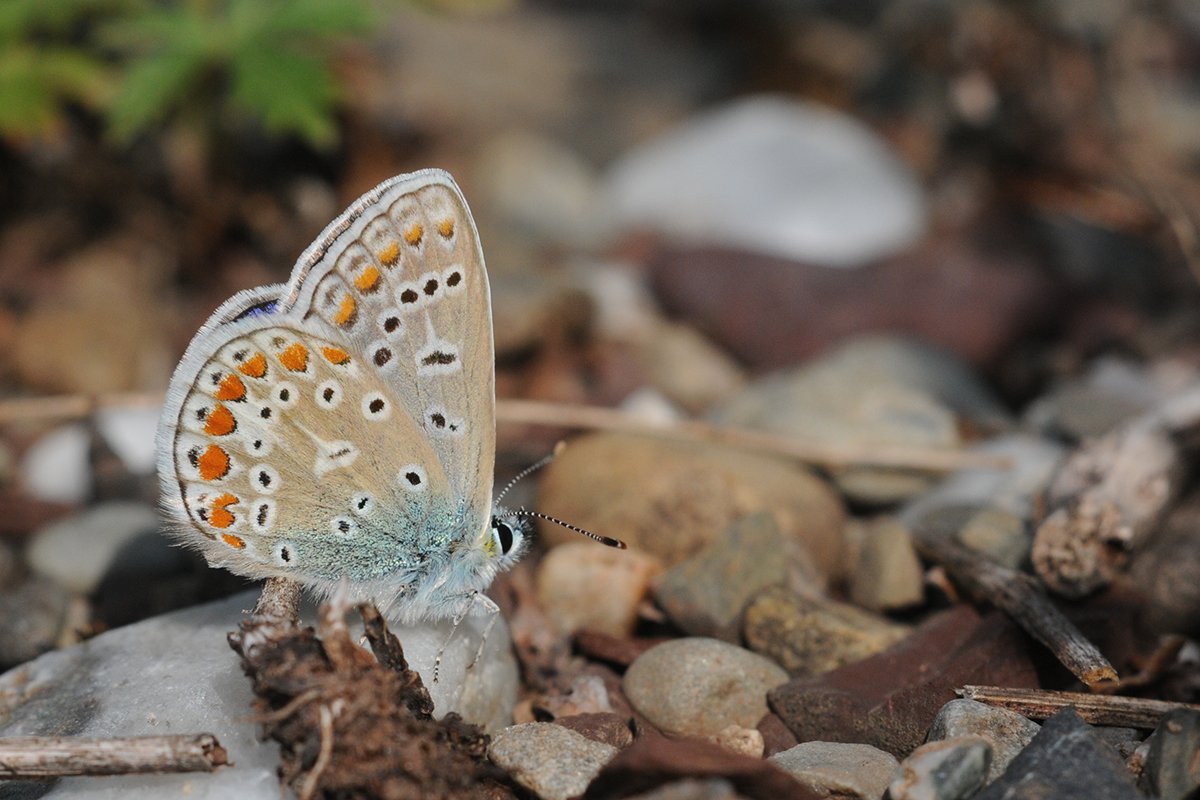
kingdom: Animalia
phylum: Arthropoda
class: Insecta
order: Lepidoptera
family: Lycaenidae
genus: Polyommatus
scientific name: Polyommatus icarus
